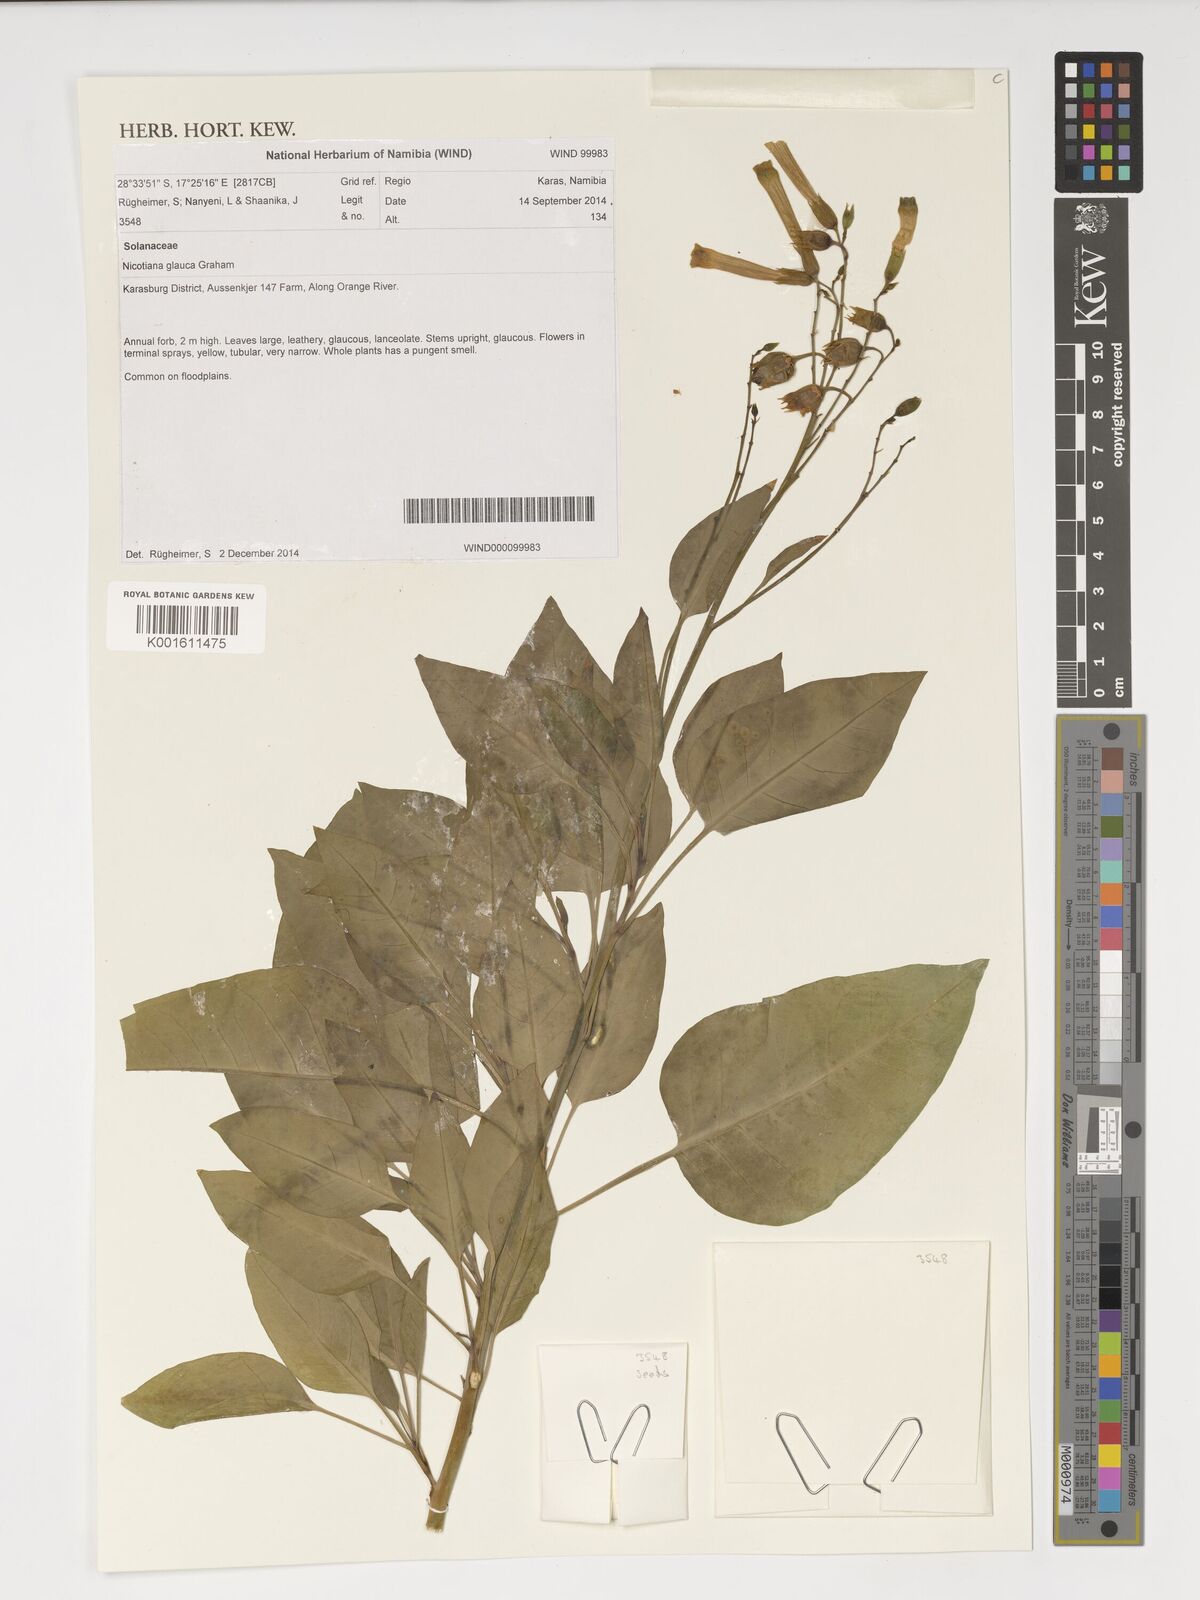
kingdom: Plantae
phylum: Tracheophyta
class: Magnoliopsida
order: Solanales
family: Solanaceae
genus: Nicotiana
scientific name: Nicotiana glauca
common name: Tree tobacco
